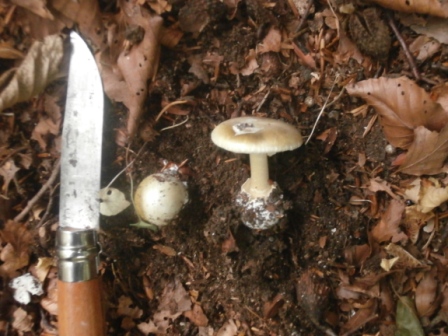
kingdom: Fungi
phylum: Basidiomycota
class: Agaricomycetes
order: Agaricales
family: Amanitaceae
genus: Amanita
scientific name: Amanita phalloides
